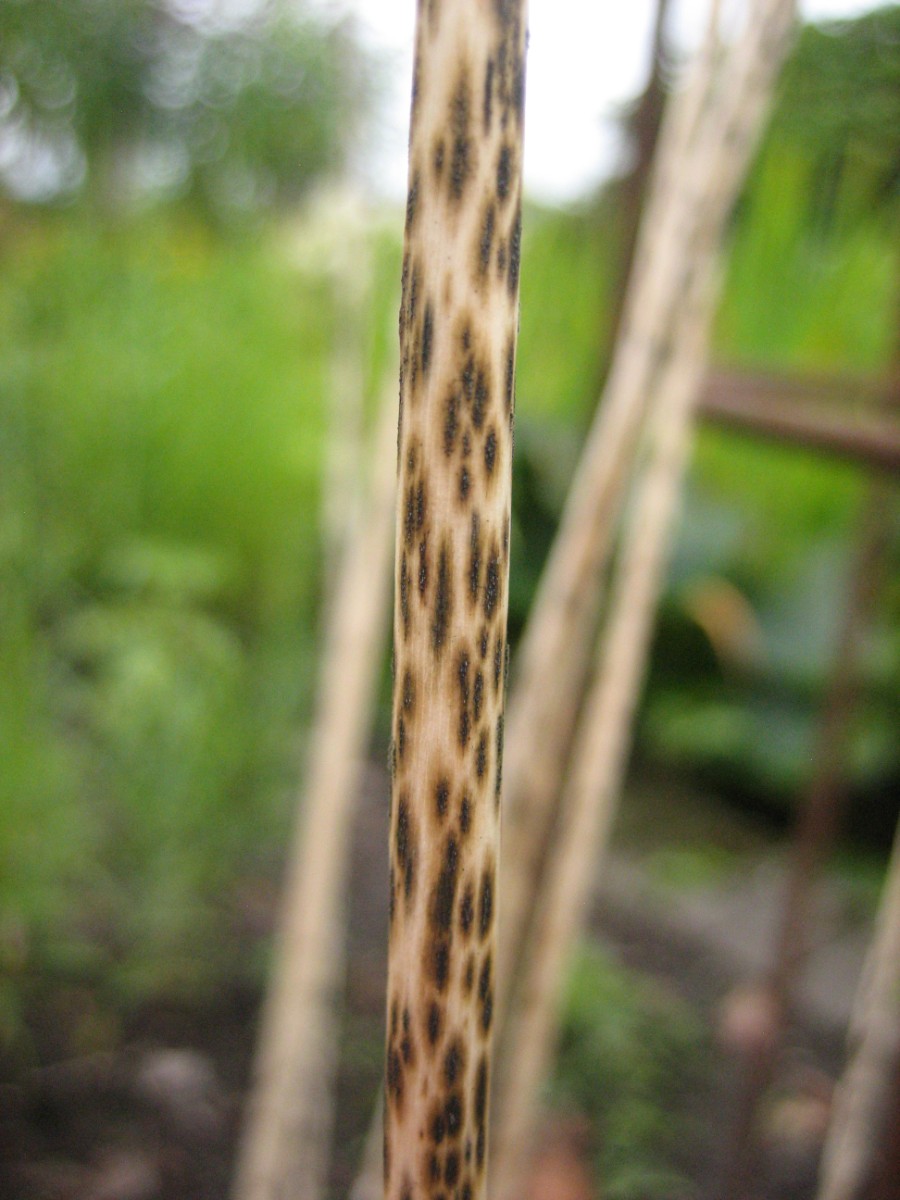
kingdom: Fungi
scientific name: Fungi
